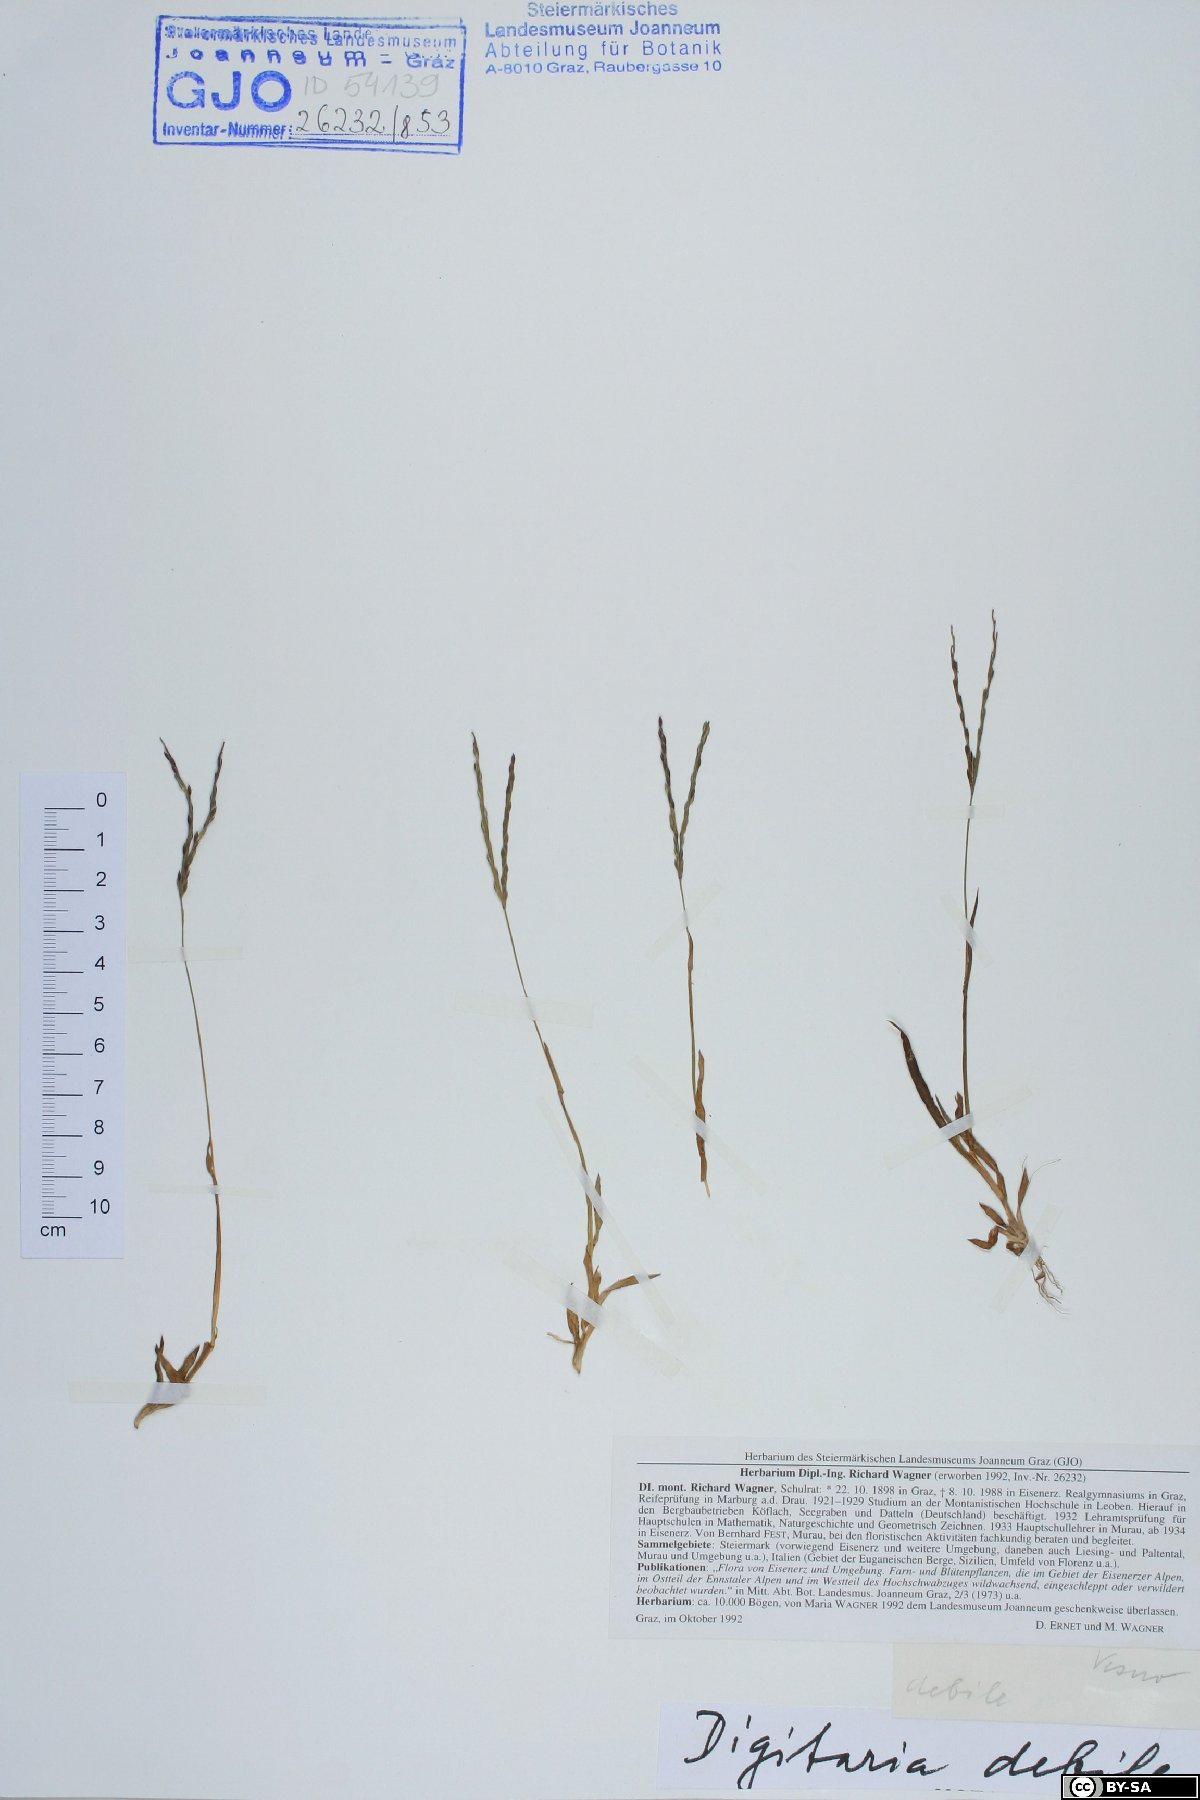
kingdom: Plantae
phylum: Tracheophyta
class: Liliopsida
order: Poales
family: Poaceae
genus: Digitaria
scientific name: Digitaria debilis
